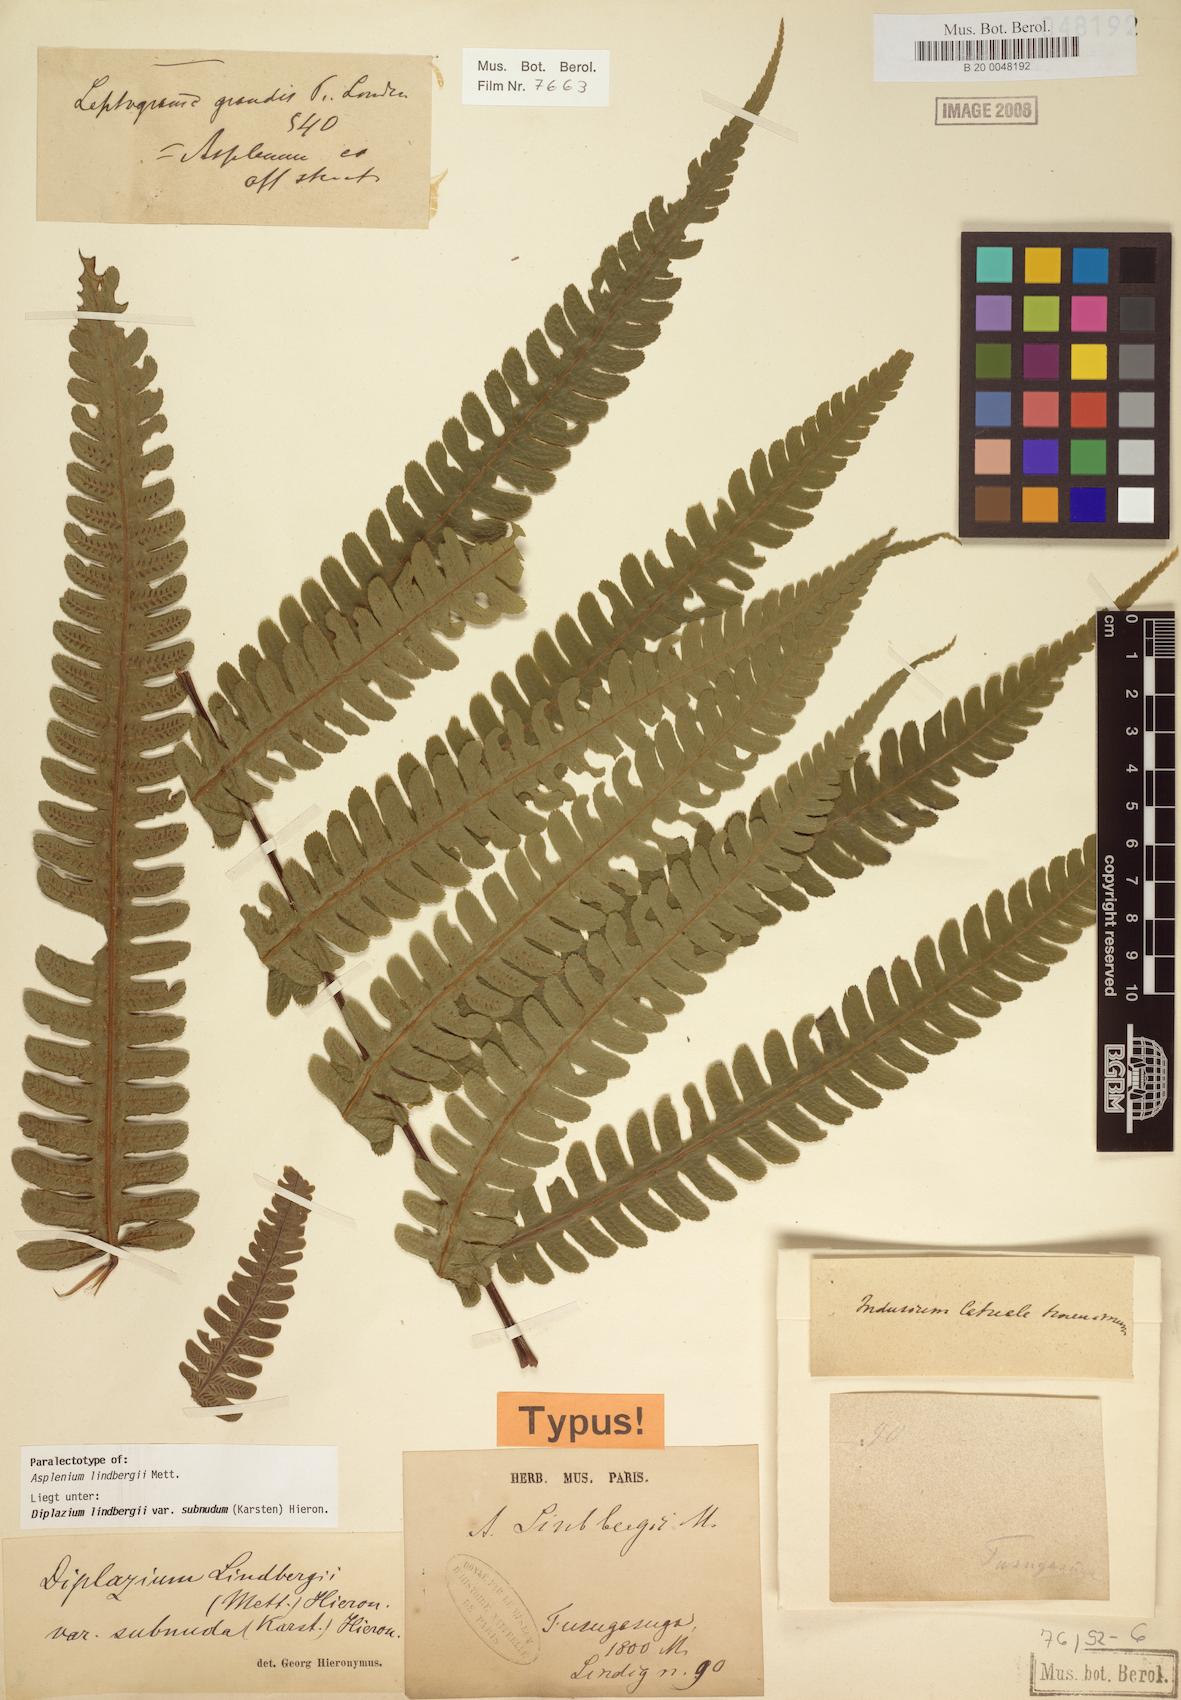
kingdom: Plantae
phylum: Tracheophyta
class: Polypodiopsida
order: Polypodiales
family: Athyriaceae
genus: Diplazium
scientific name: Diplazium lindbergii
